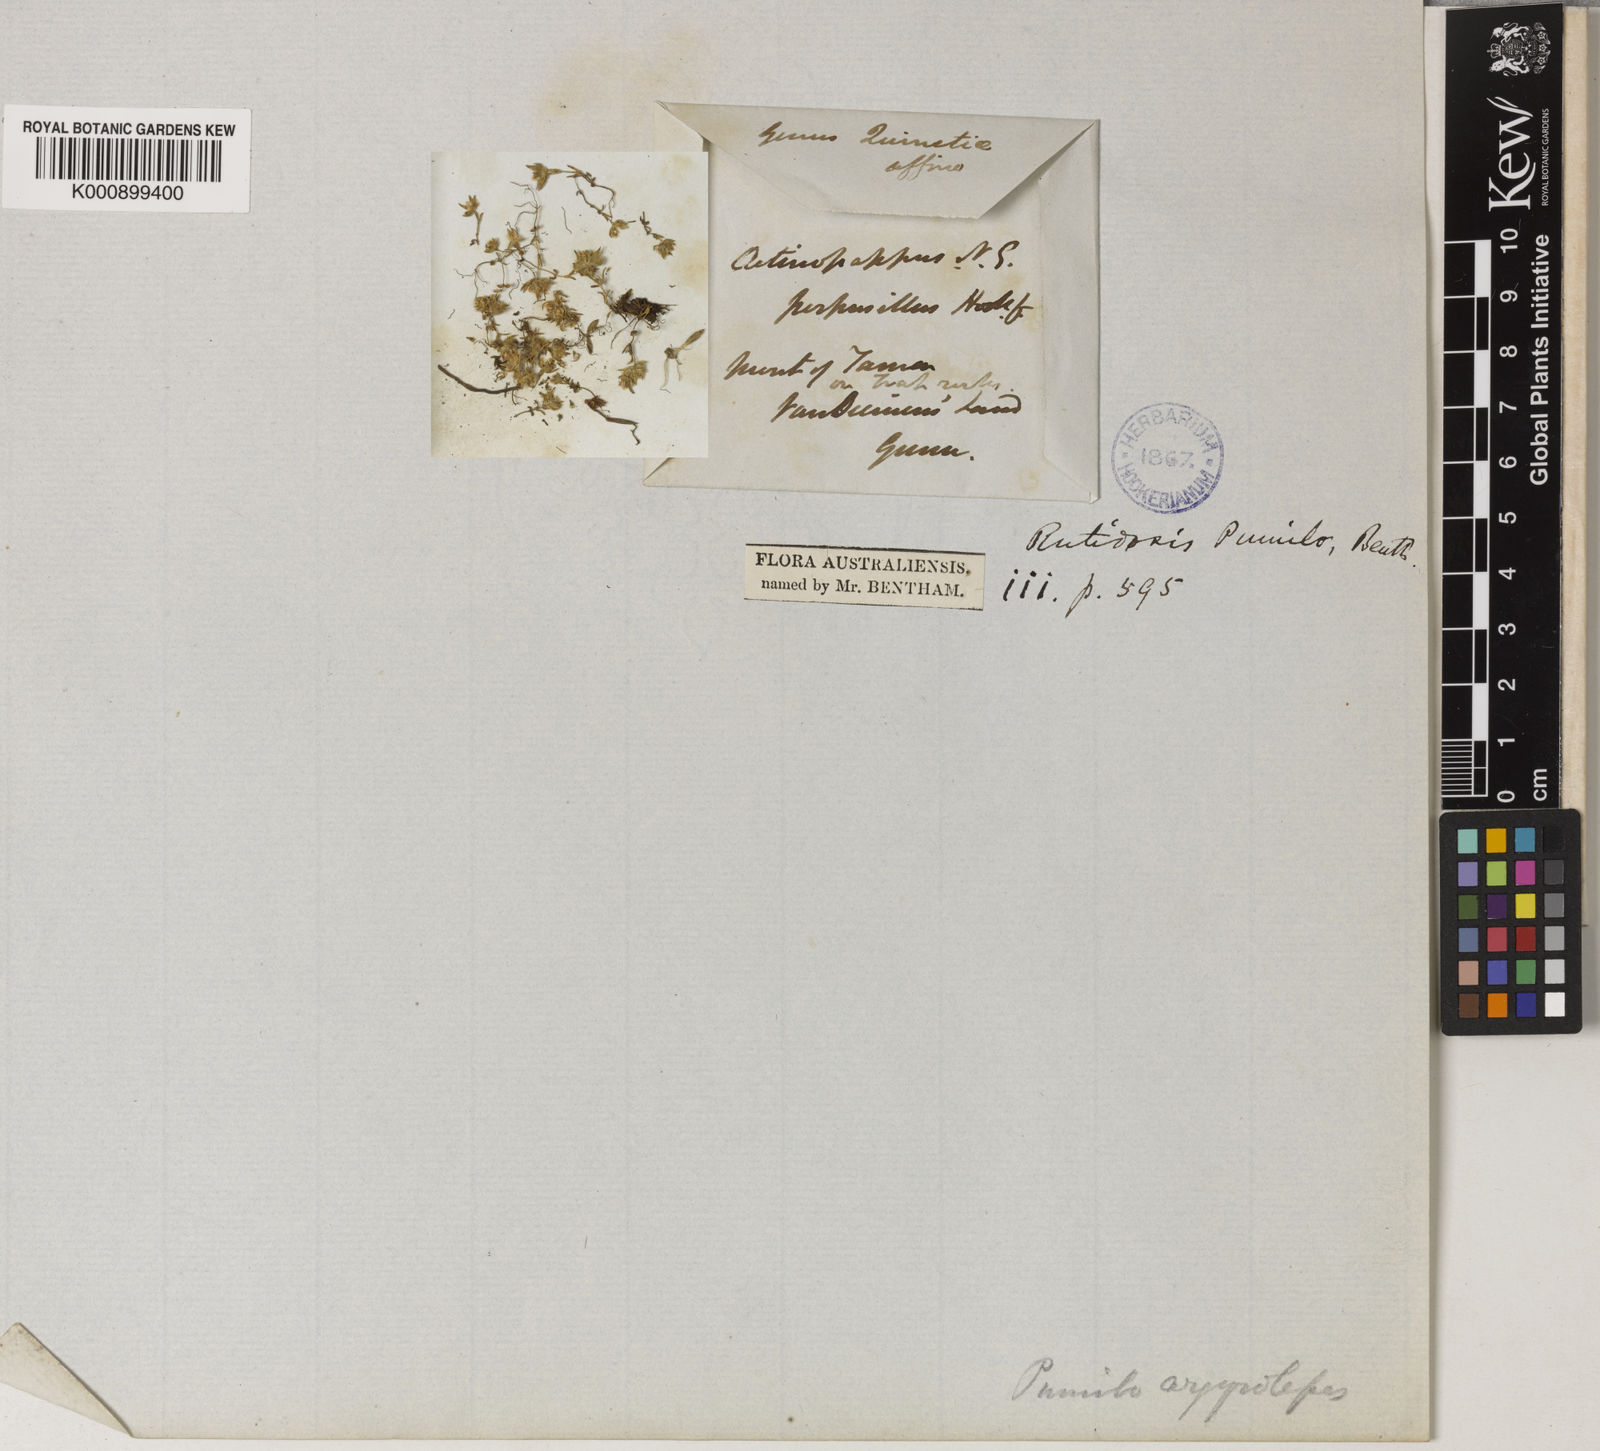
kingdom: Plantae
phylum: Tracheophyta
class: Magnoliopsida
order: Asterales
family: Asteraceae
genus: Siloxerus
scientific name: Siloxerus multiflorus
